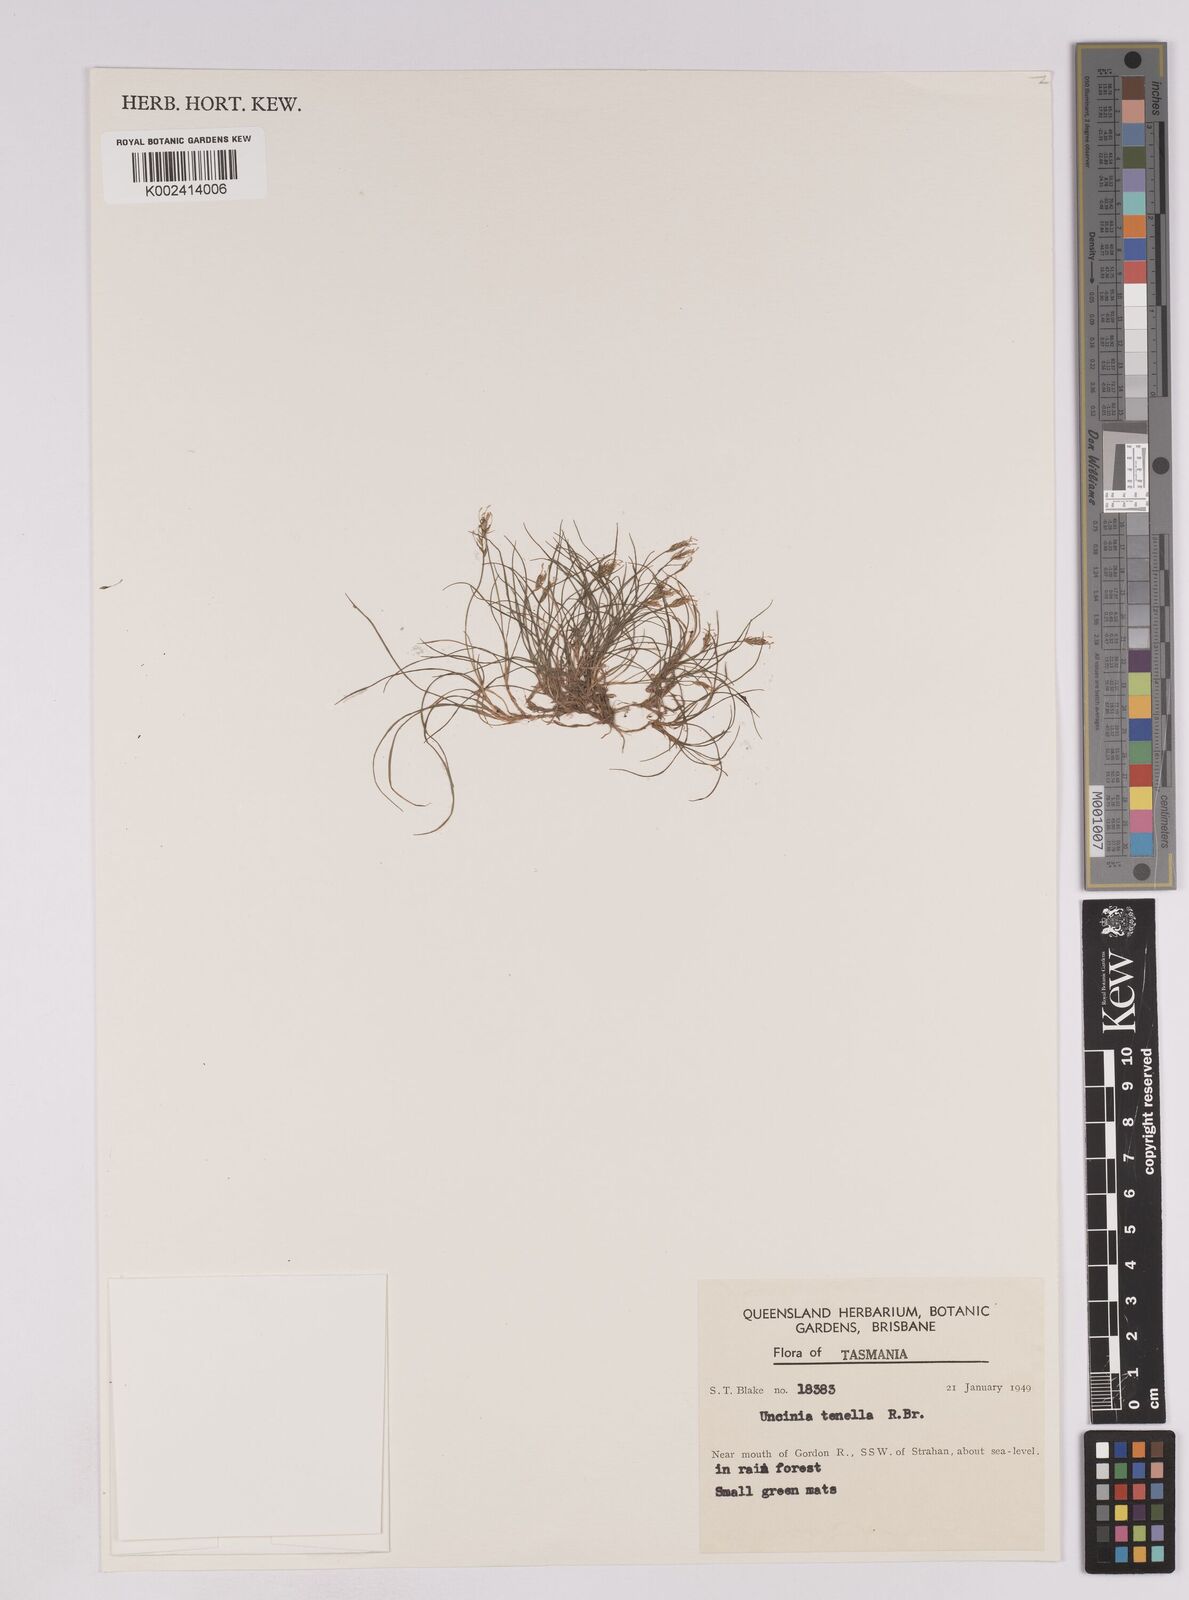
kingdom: Plantae
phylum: Tracheophyta
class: Liliopsida
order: Poales
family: Cyperaceae
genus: Carex
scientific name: Carex austrotenella
